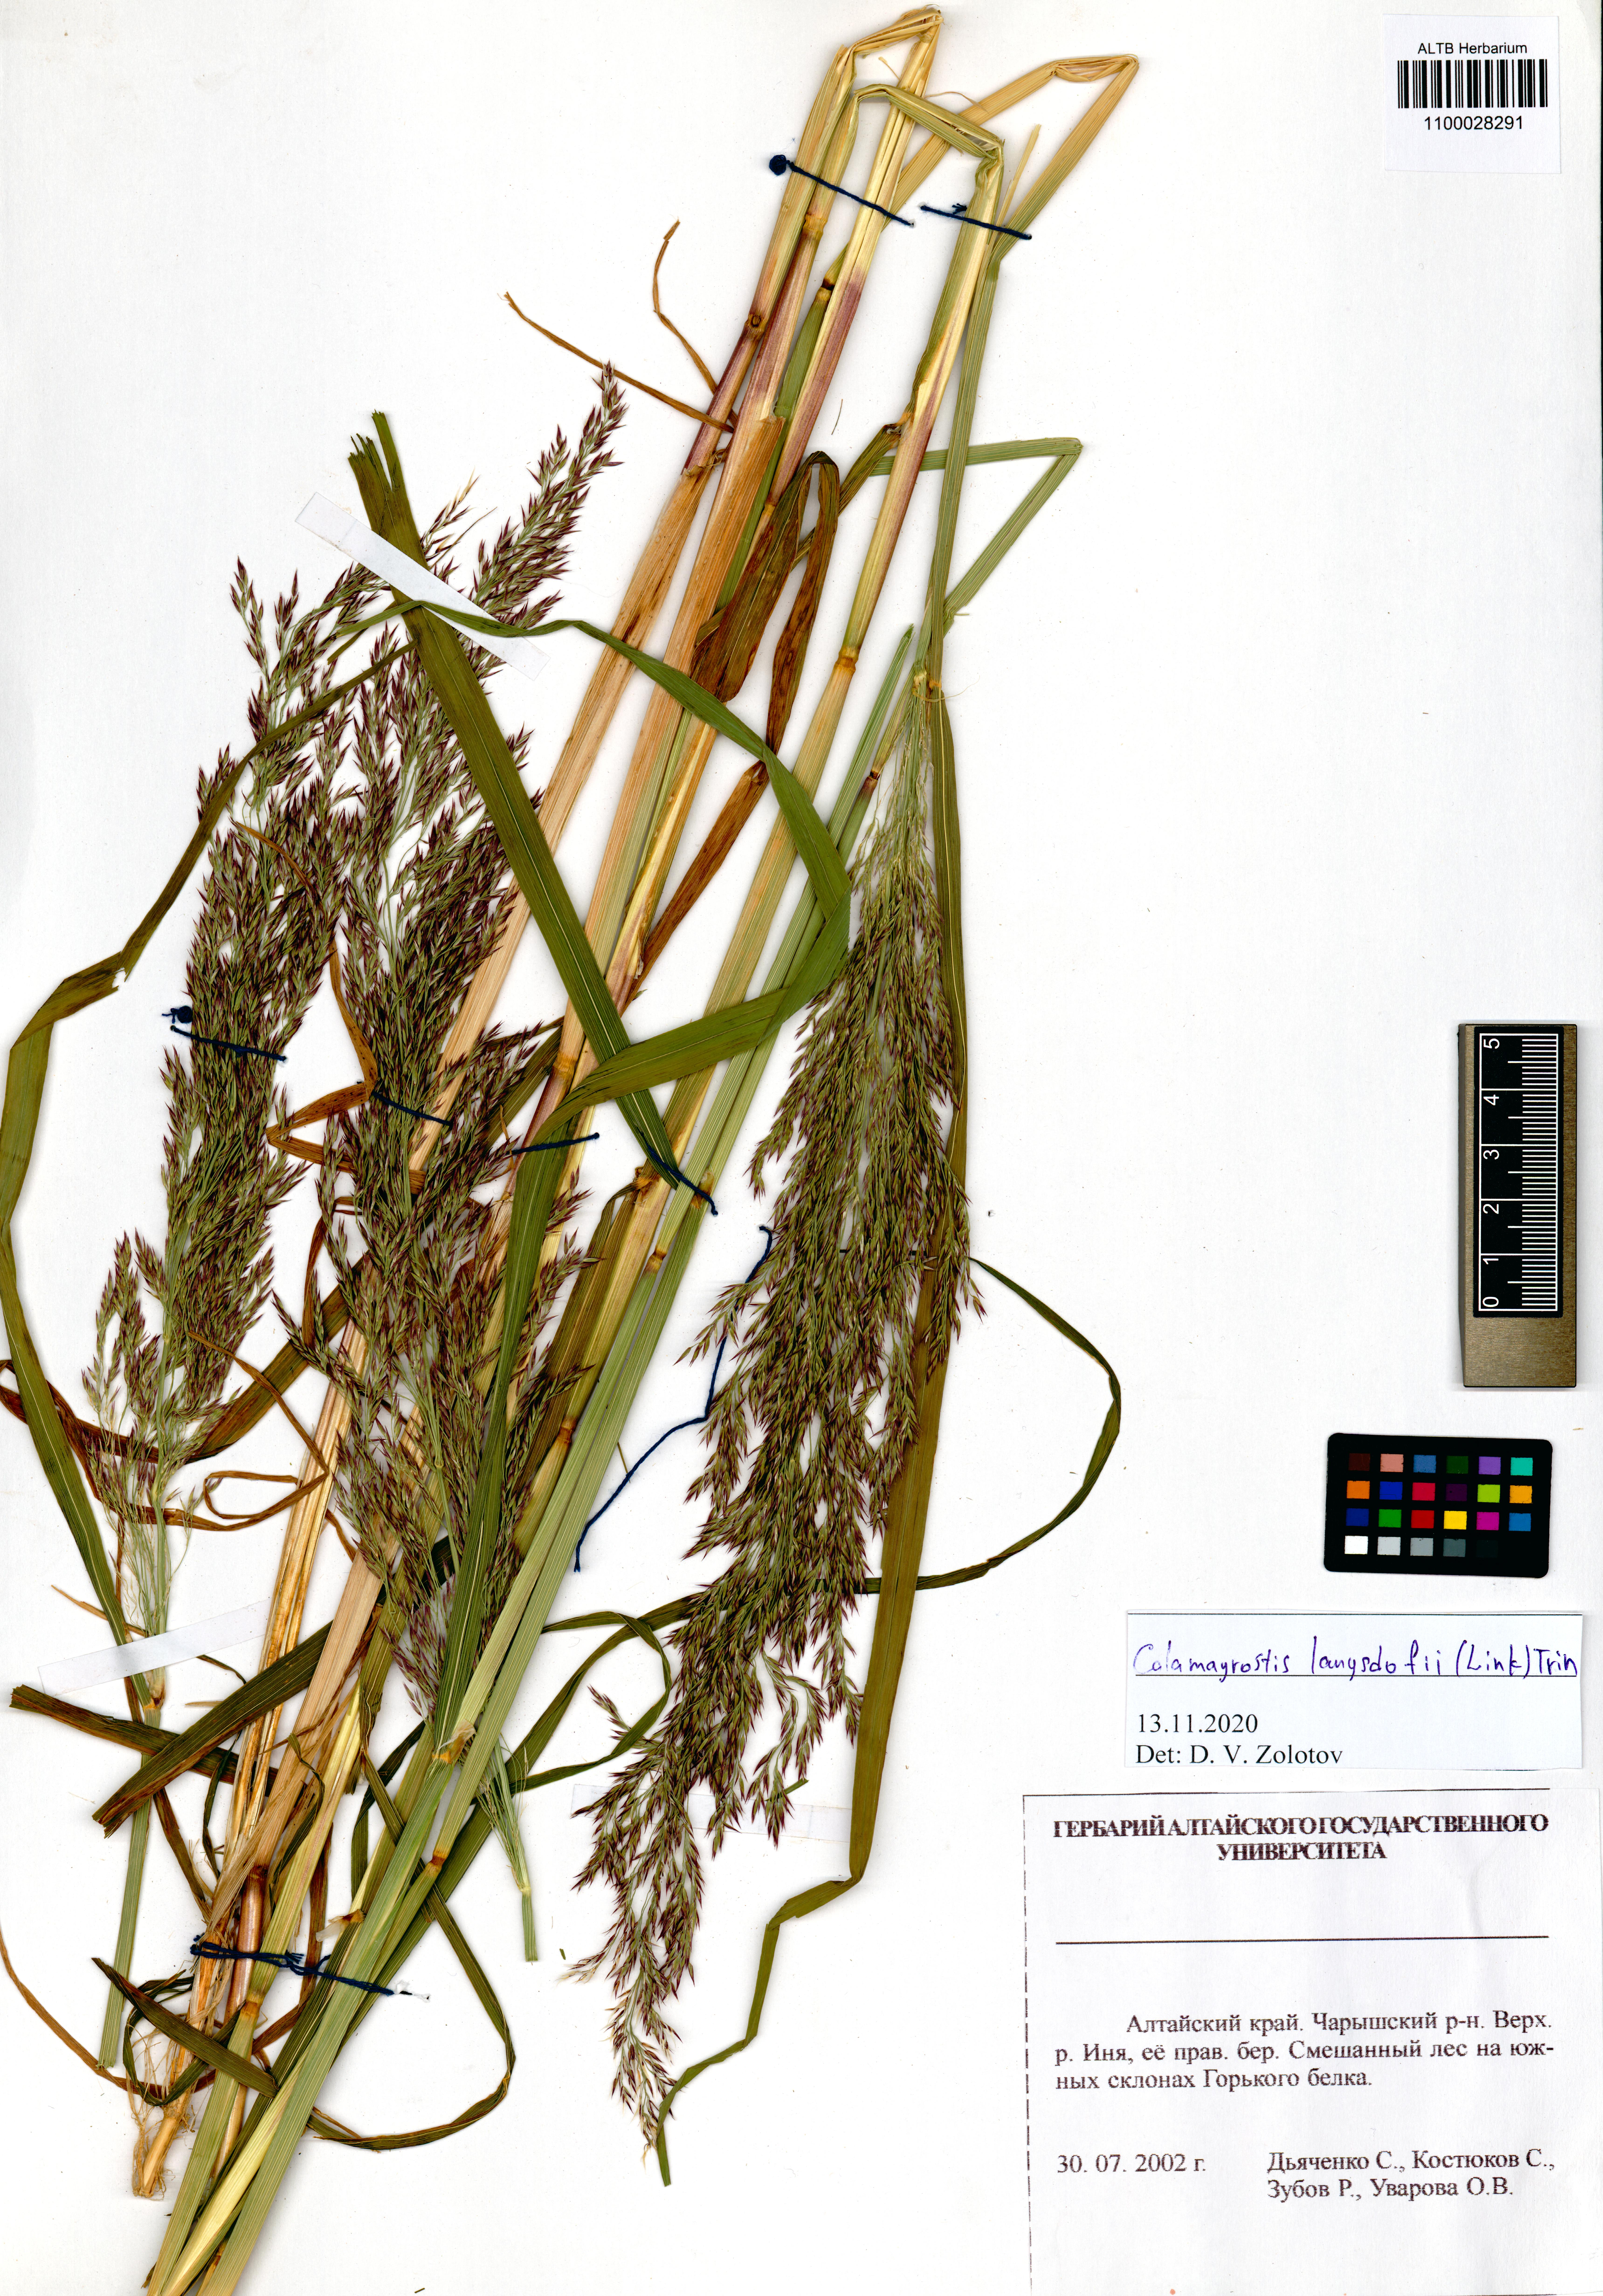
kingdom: Plantae
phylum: Tracheophyta
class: Liliopsida
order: Poales
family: Poaceae
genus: Calamagrostis
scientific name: Calamagrostis purpurea
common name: Scandinavian small-reed
